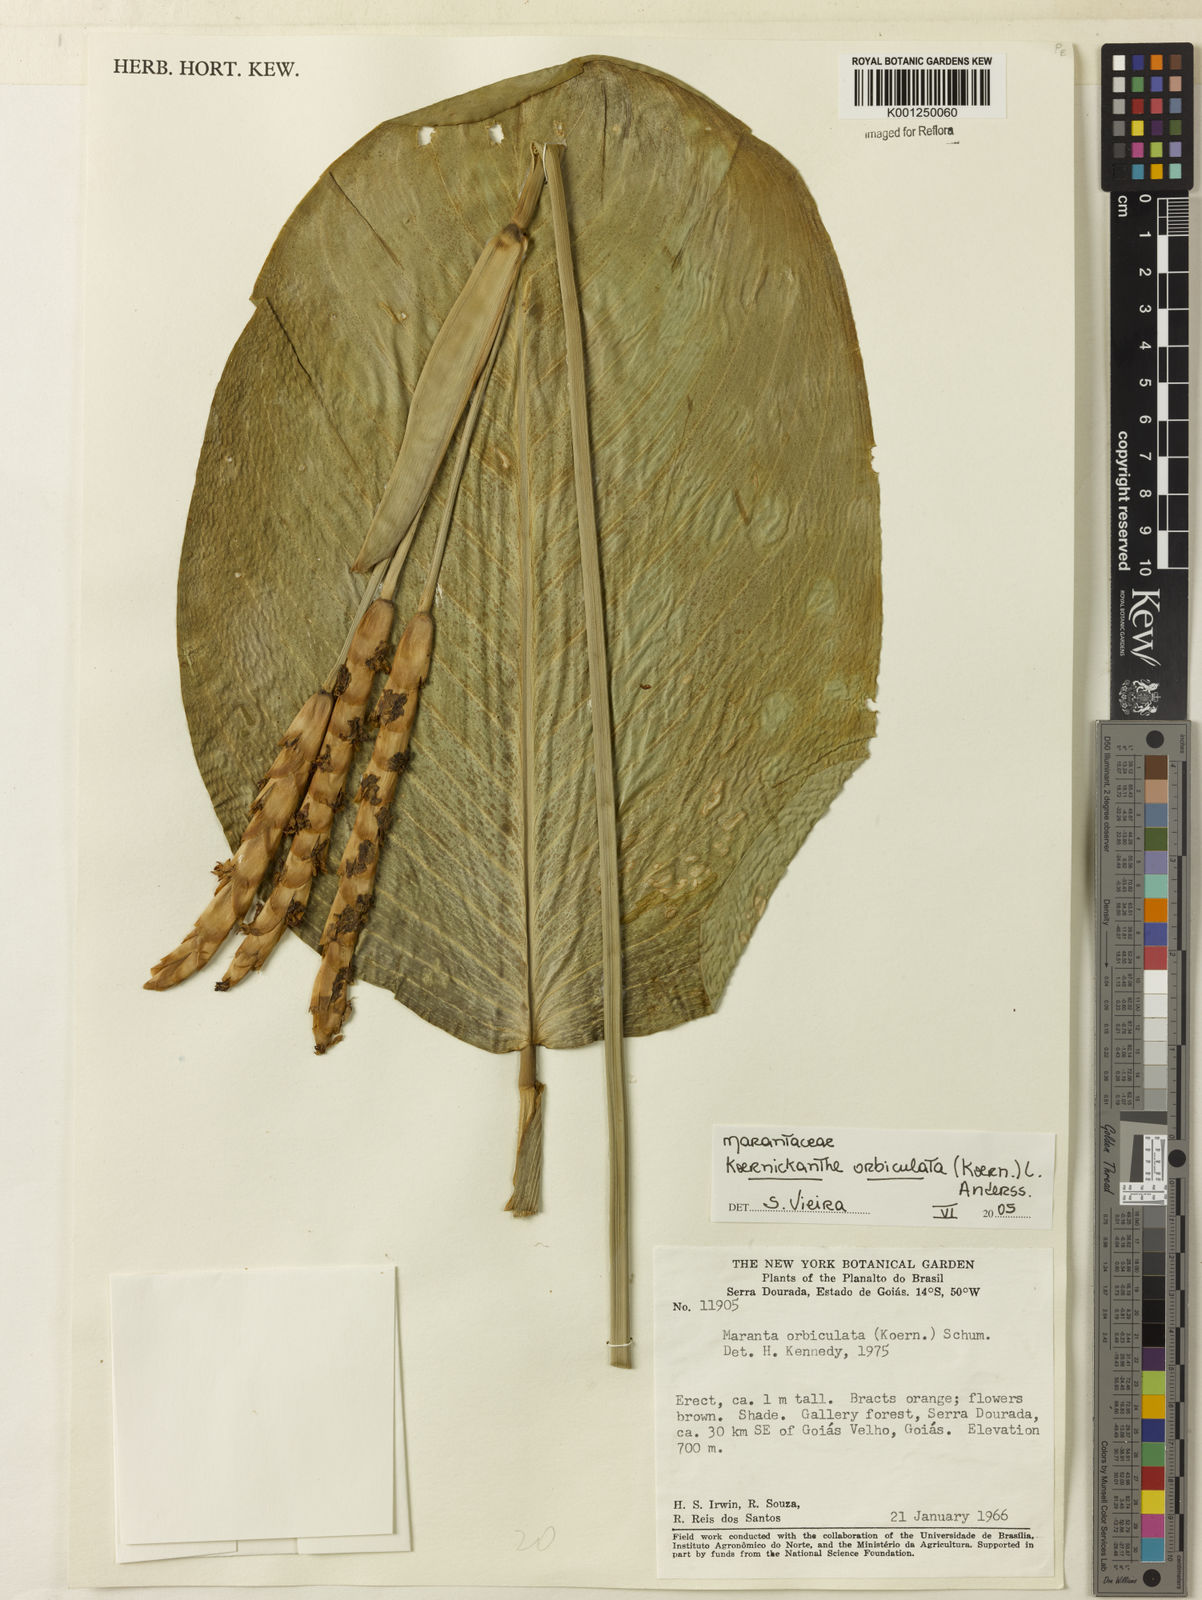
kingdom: Plantae
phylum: Tracheophyta
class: Liliopsida
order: Zingiberales
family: Marantaceae
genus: Koernickanthe
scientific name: Koernickanthe orbiculata
